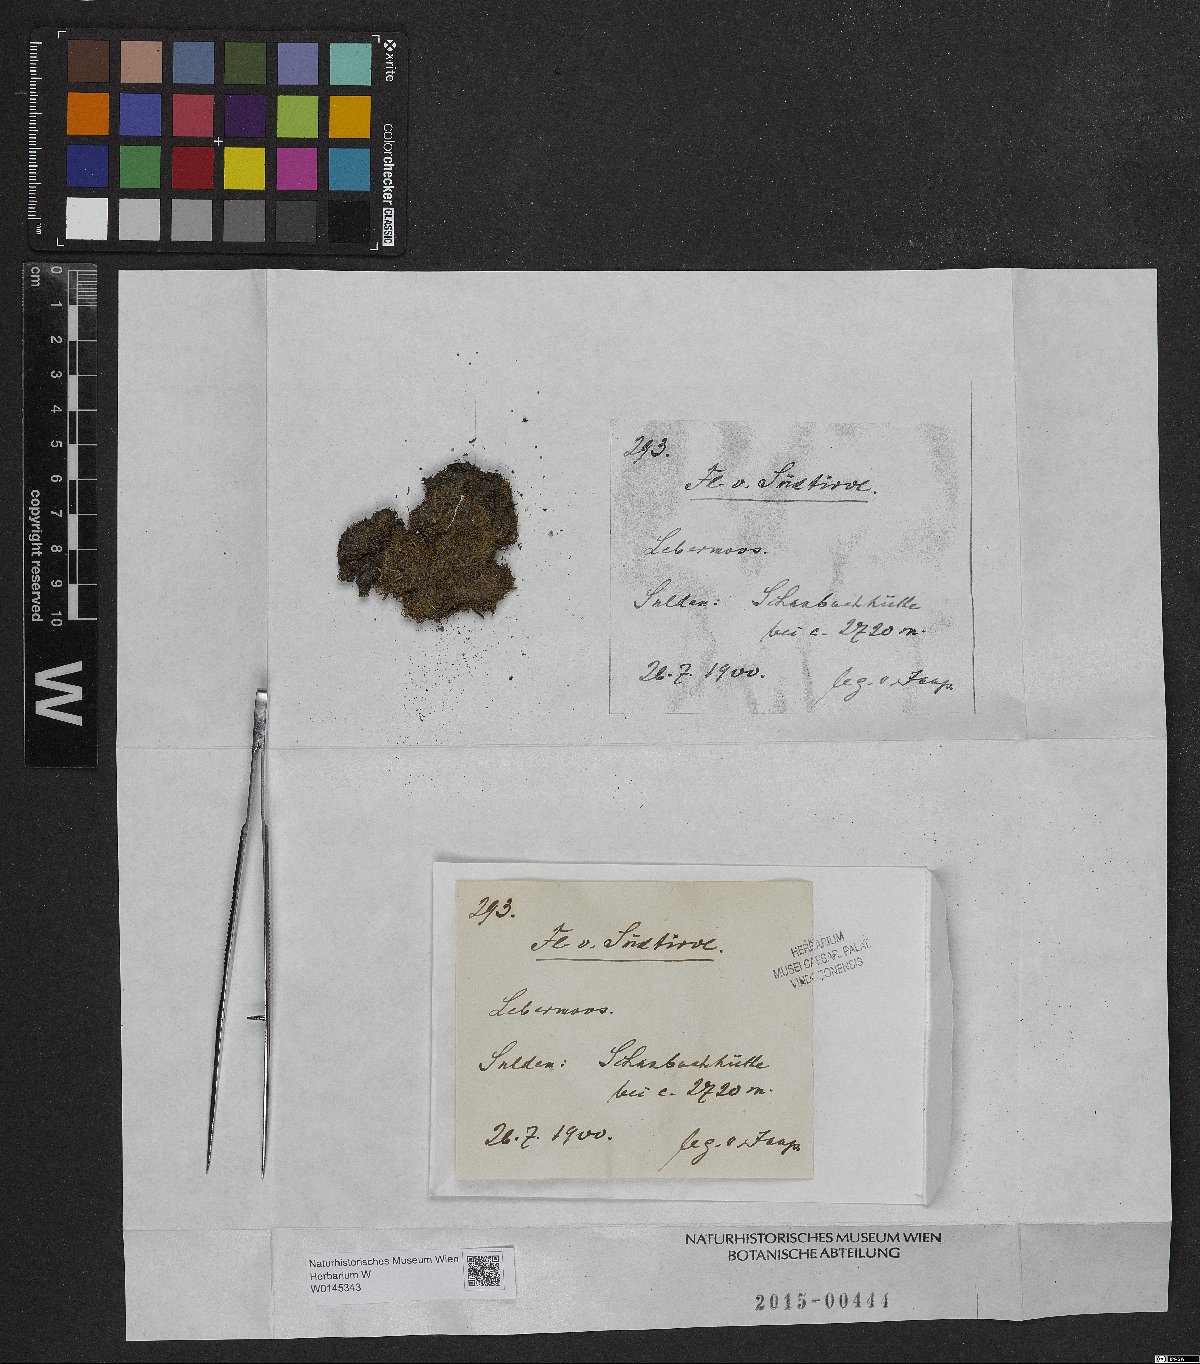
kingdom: Plantae
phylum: Marchantiophyta
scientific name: Marchantiophyta
